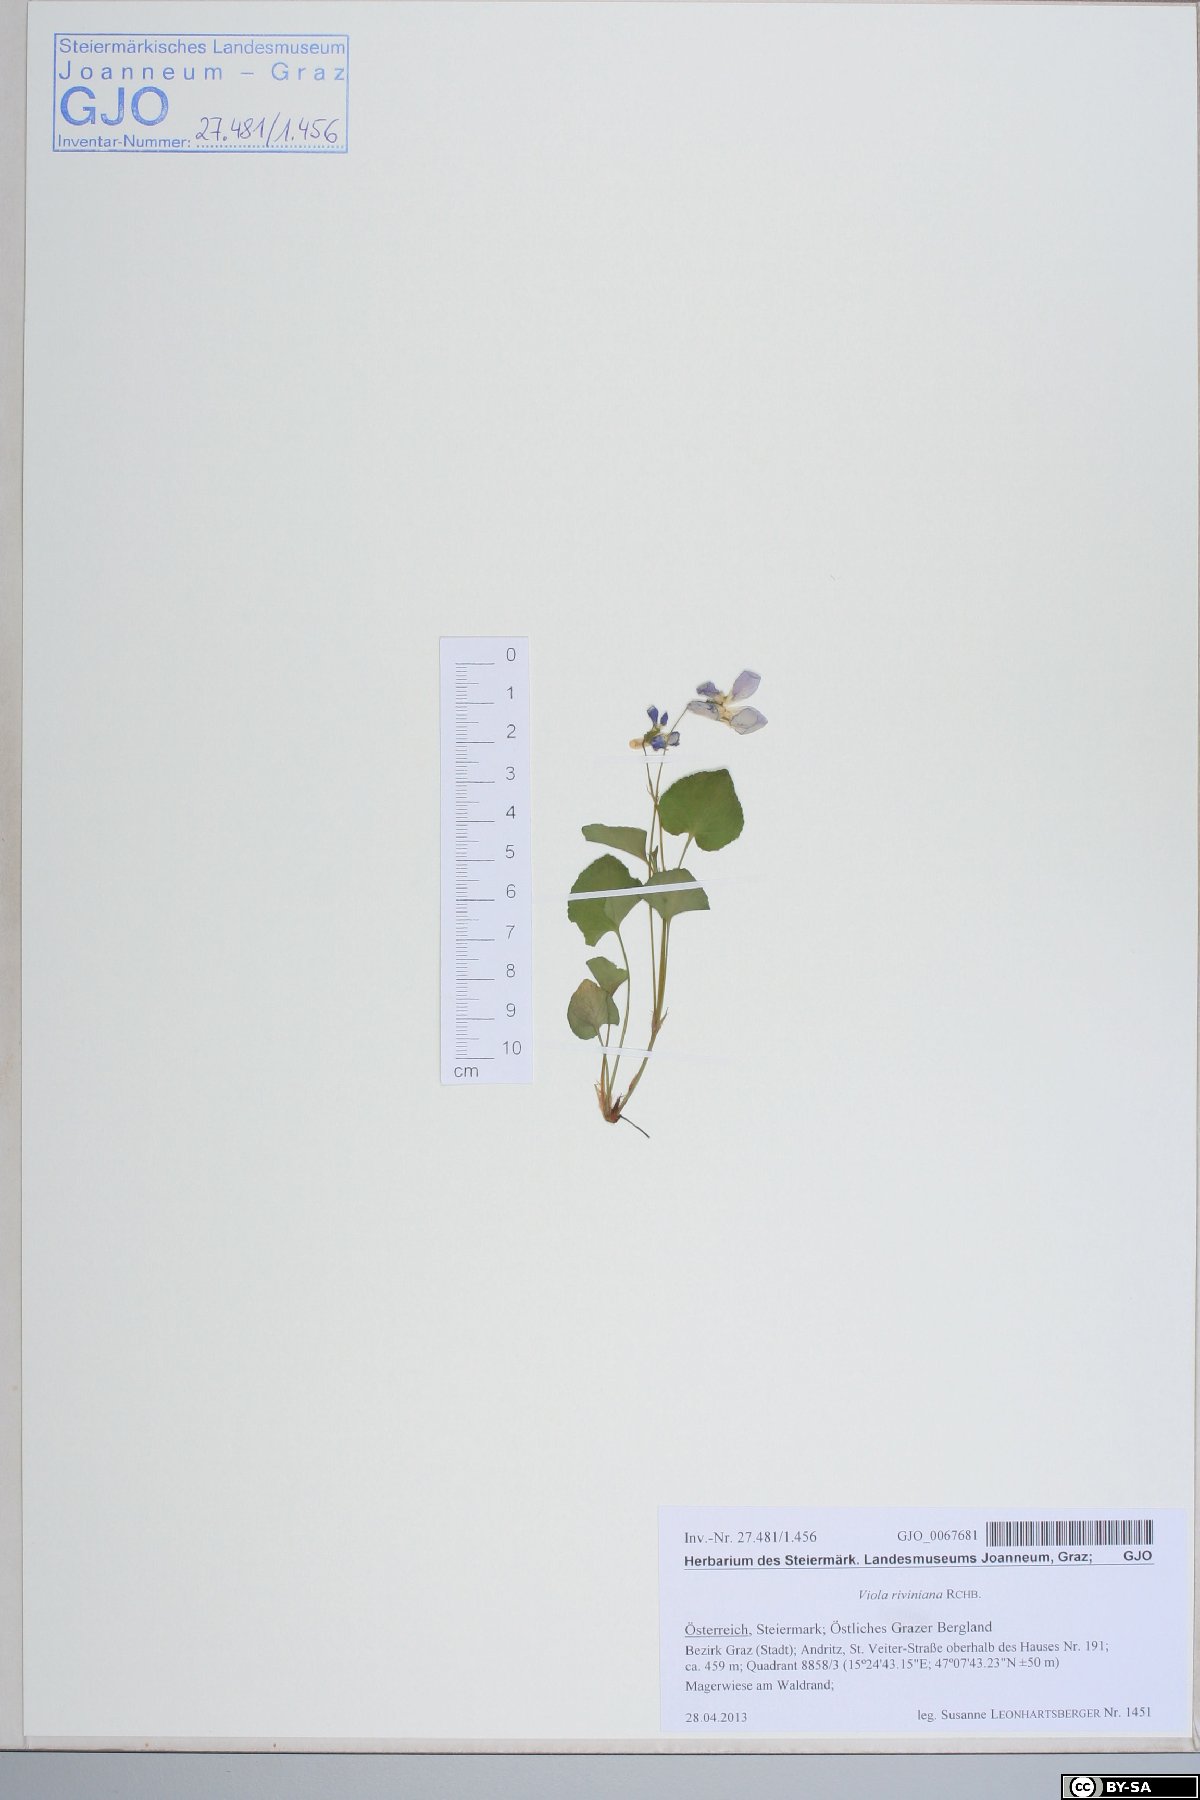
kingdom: Plantae
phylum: Tracheophyta
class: Magnoliopsida
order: Malpighiales
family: Violaceae
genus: Viola
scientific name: Viola riviniana
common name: Common dog-violet
